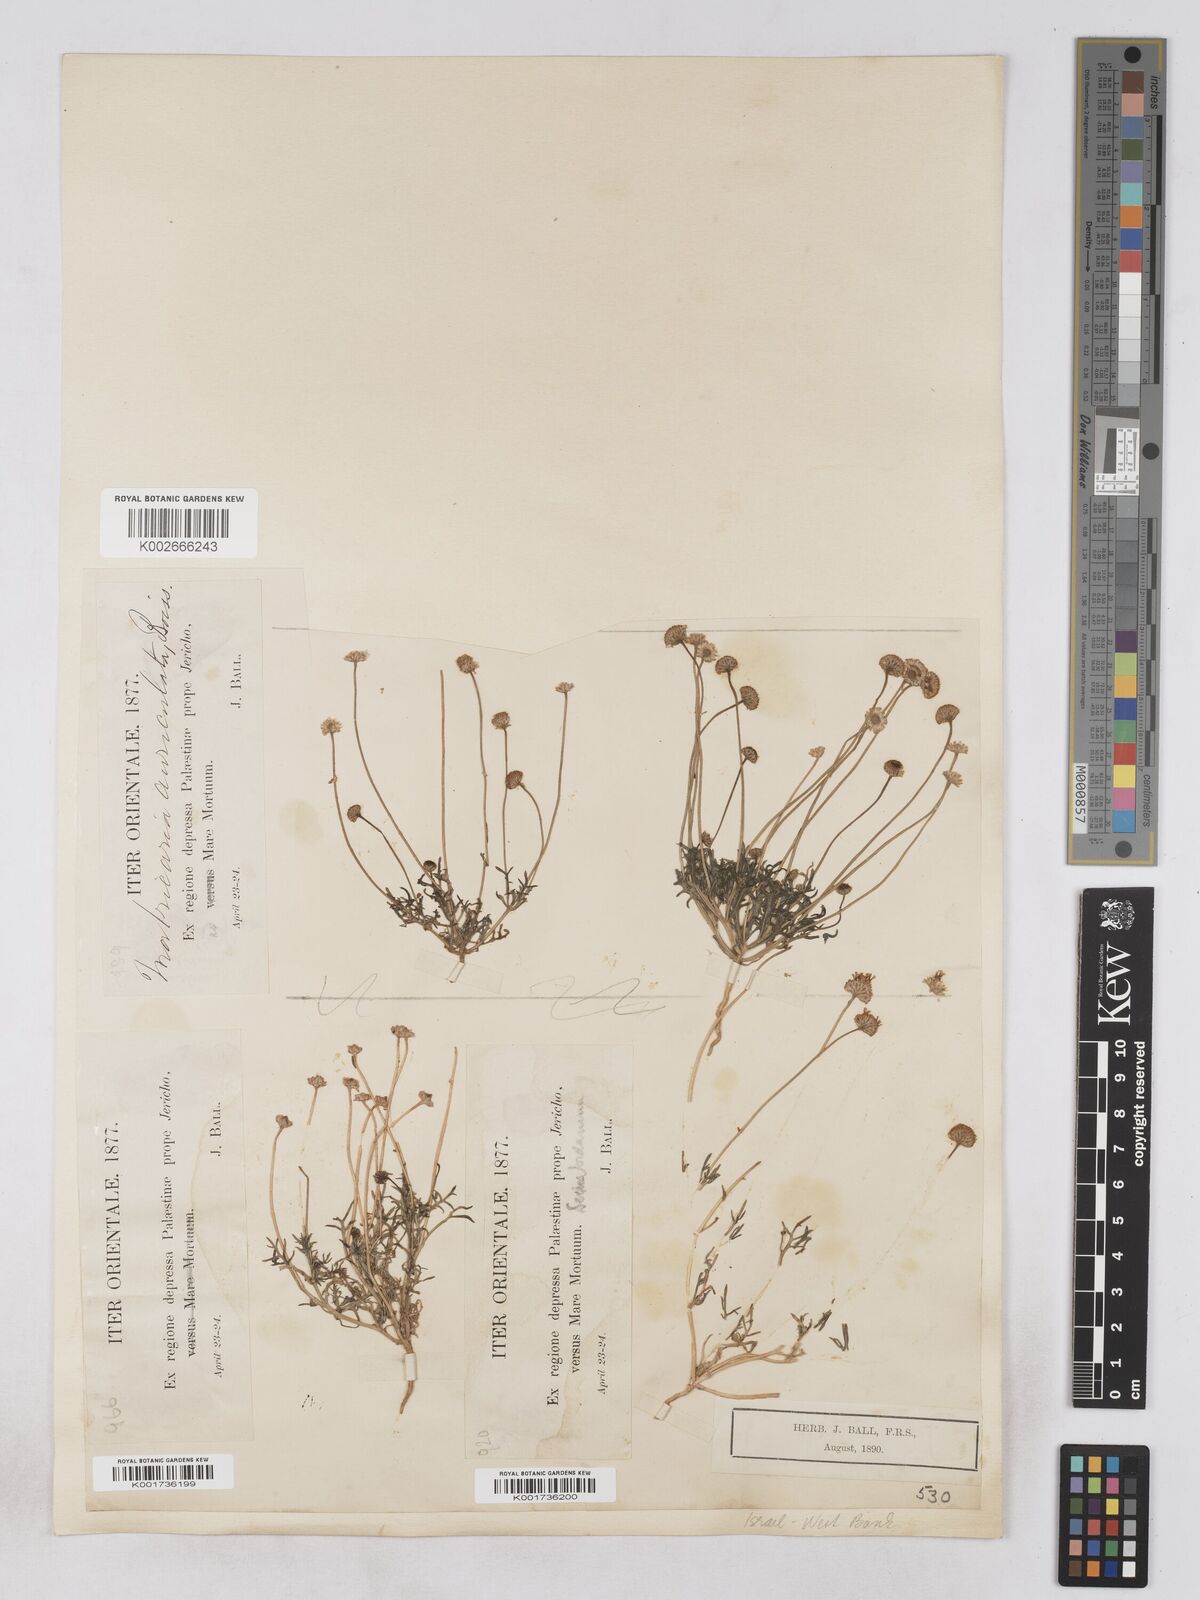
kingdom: Plantae
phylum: Tracheophyta
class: Magnoliopsida
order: Asterales
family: Asteraceae
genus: Otoglyphis
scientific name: Otoglyphis factorovskyi
